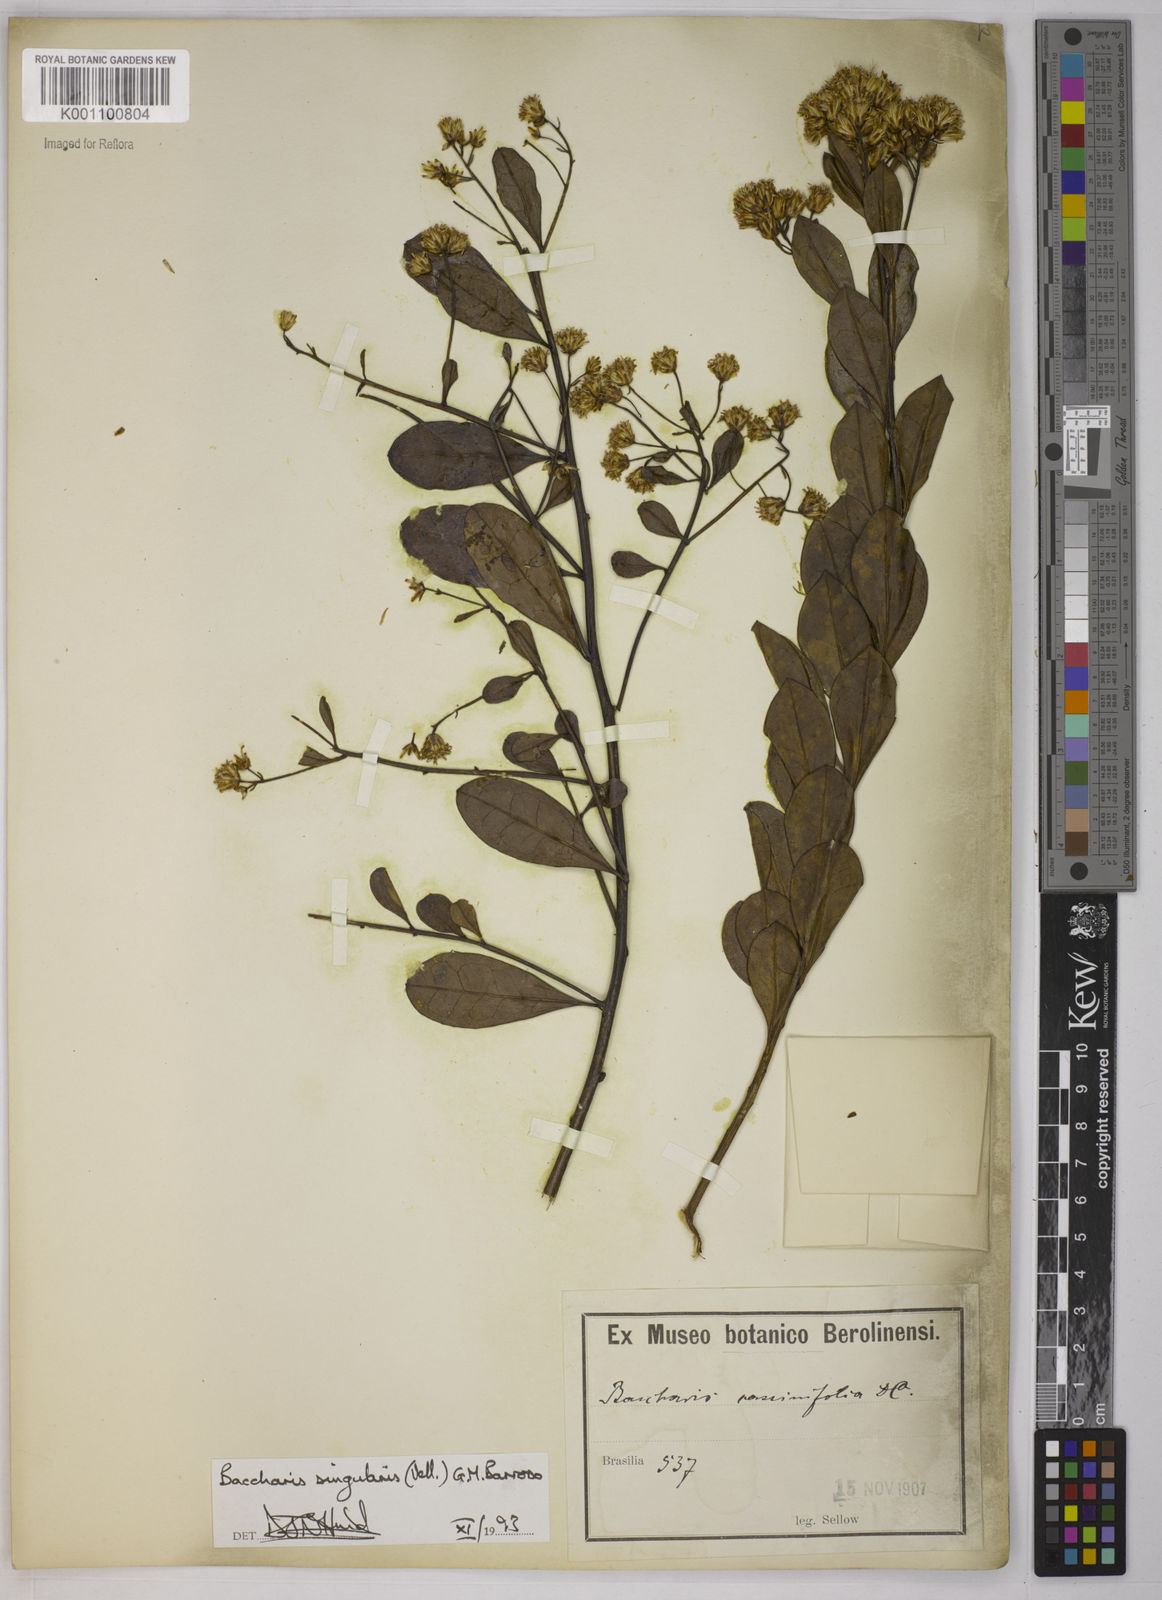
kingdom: Plantae
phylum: Tracheophyta
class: Magnoliopsida
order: Asterales
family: Asteraceae
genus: Baccharis
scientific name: Baccharis
